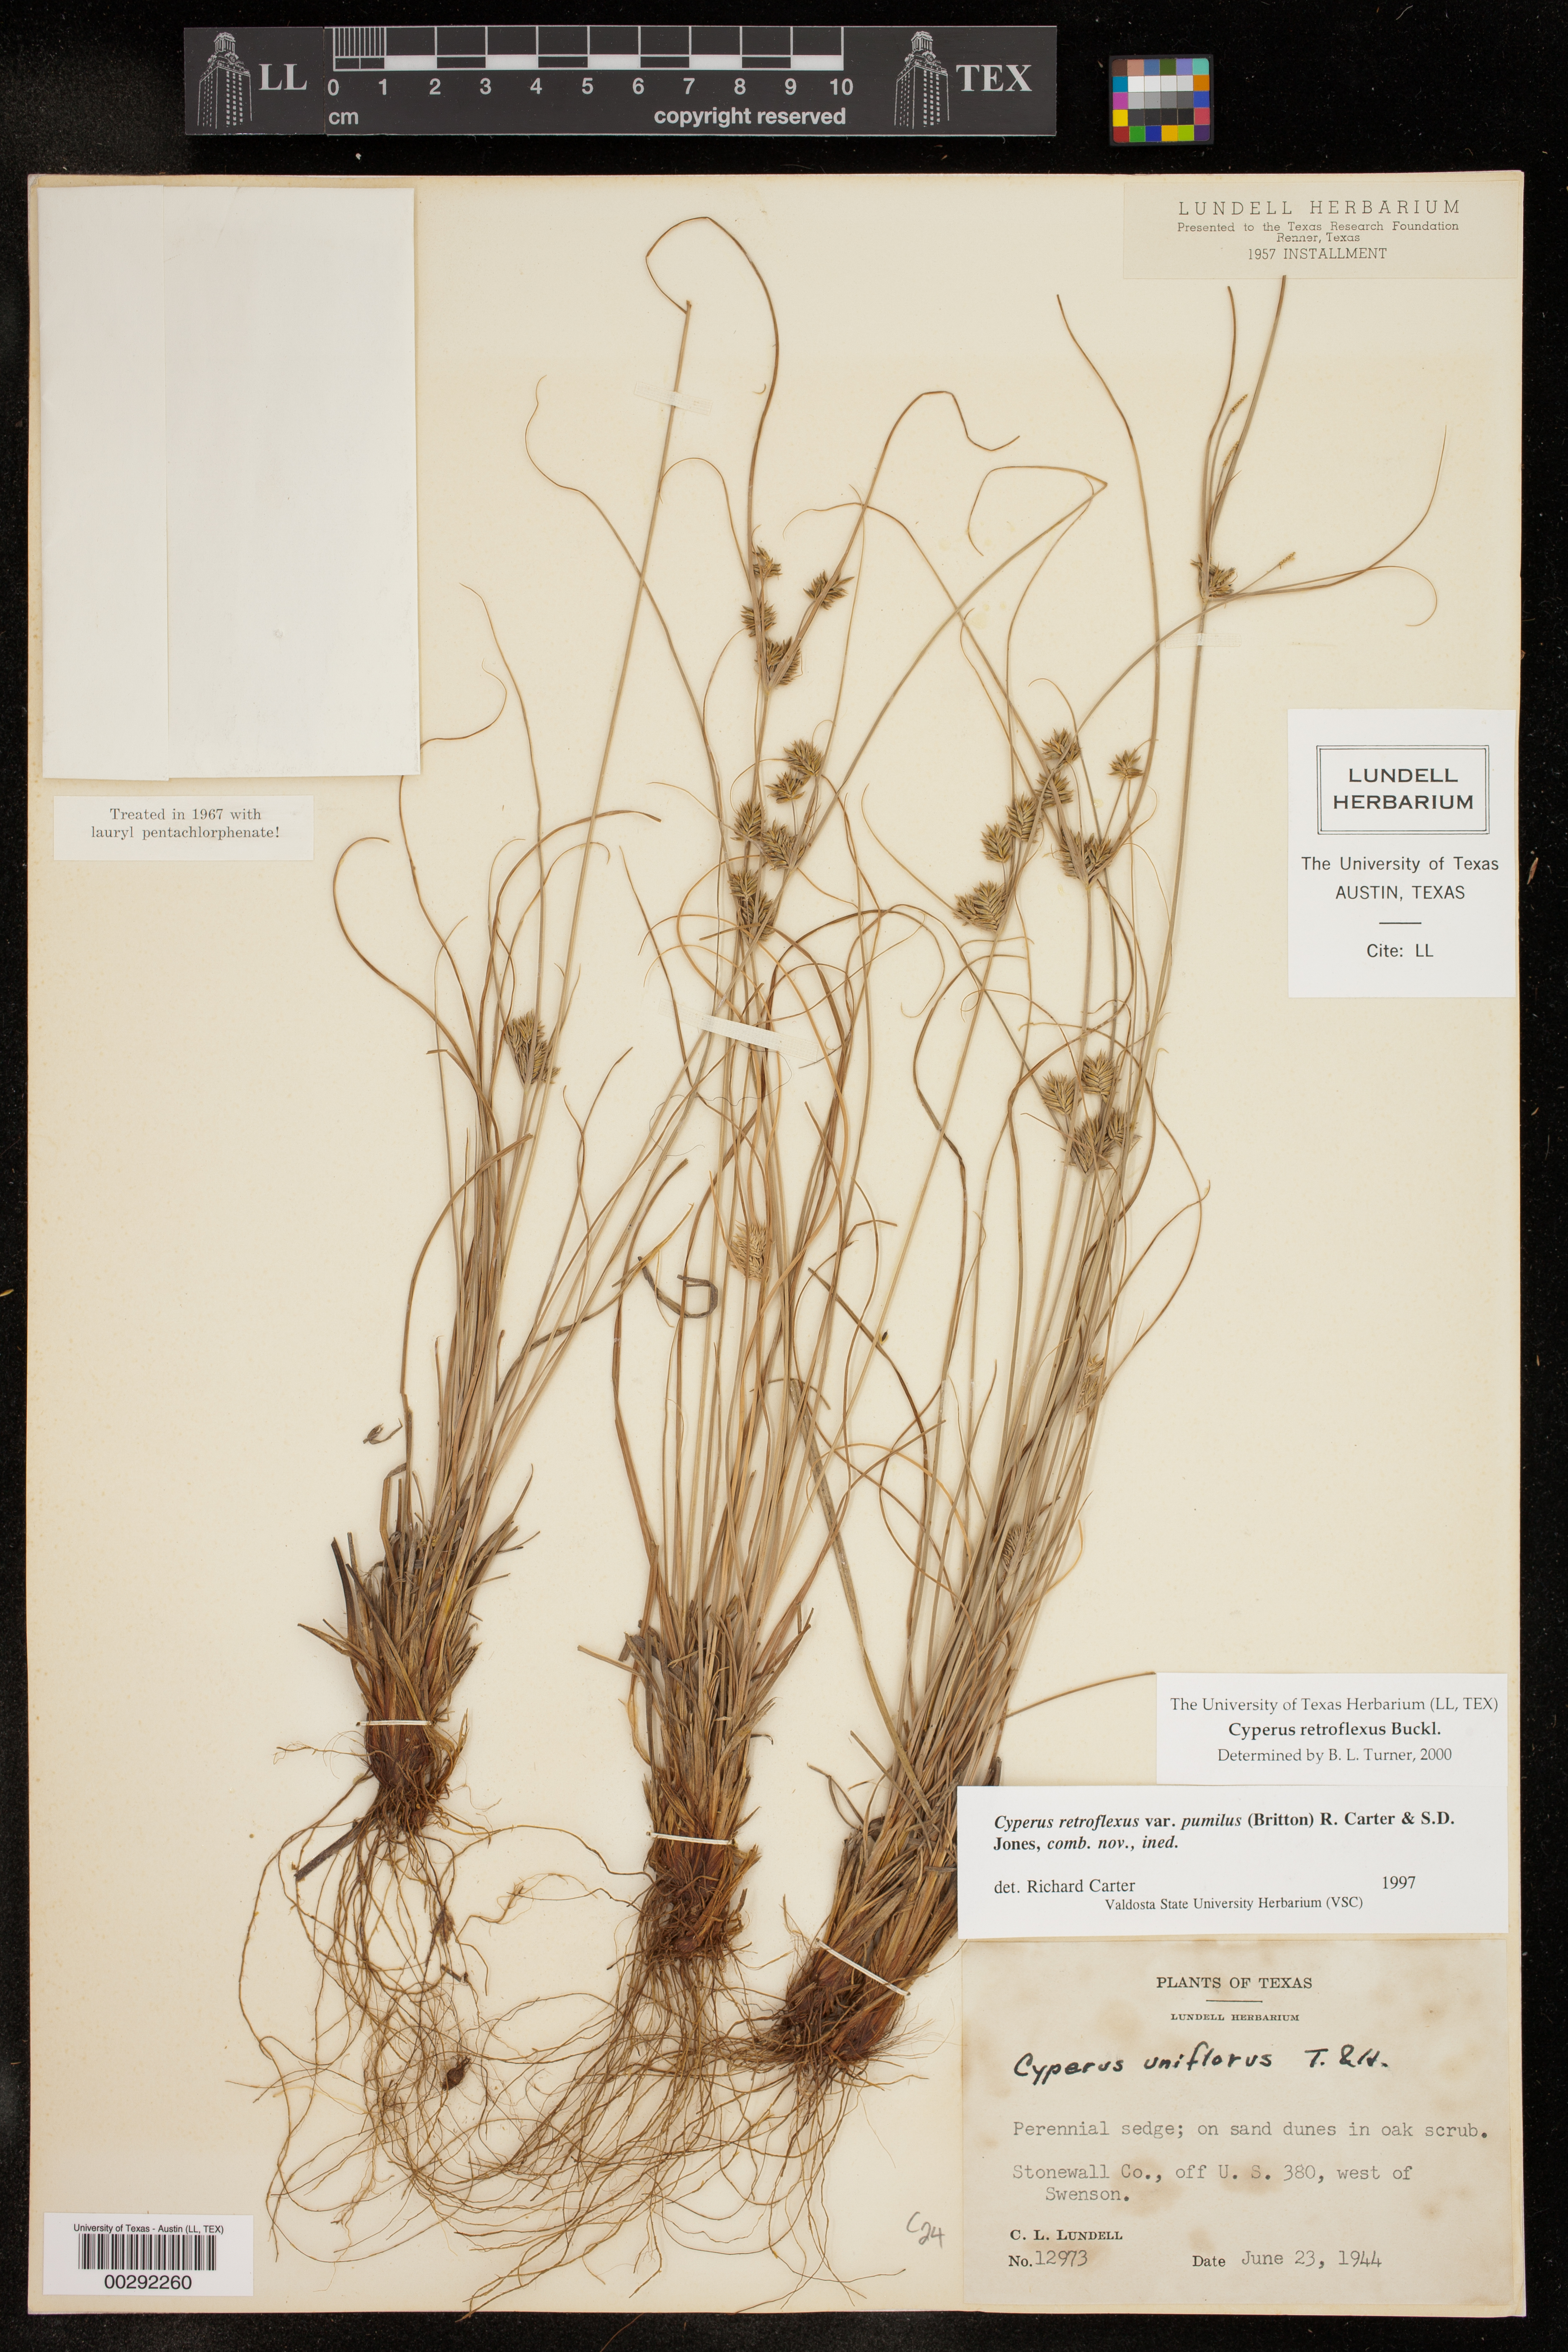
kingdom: Plantae
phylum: Tracheophyta
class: Liliopsida
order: Poales
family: Cyperaceae
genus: Cyperus
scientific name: Cyperus retroflexus
